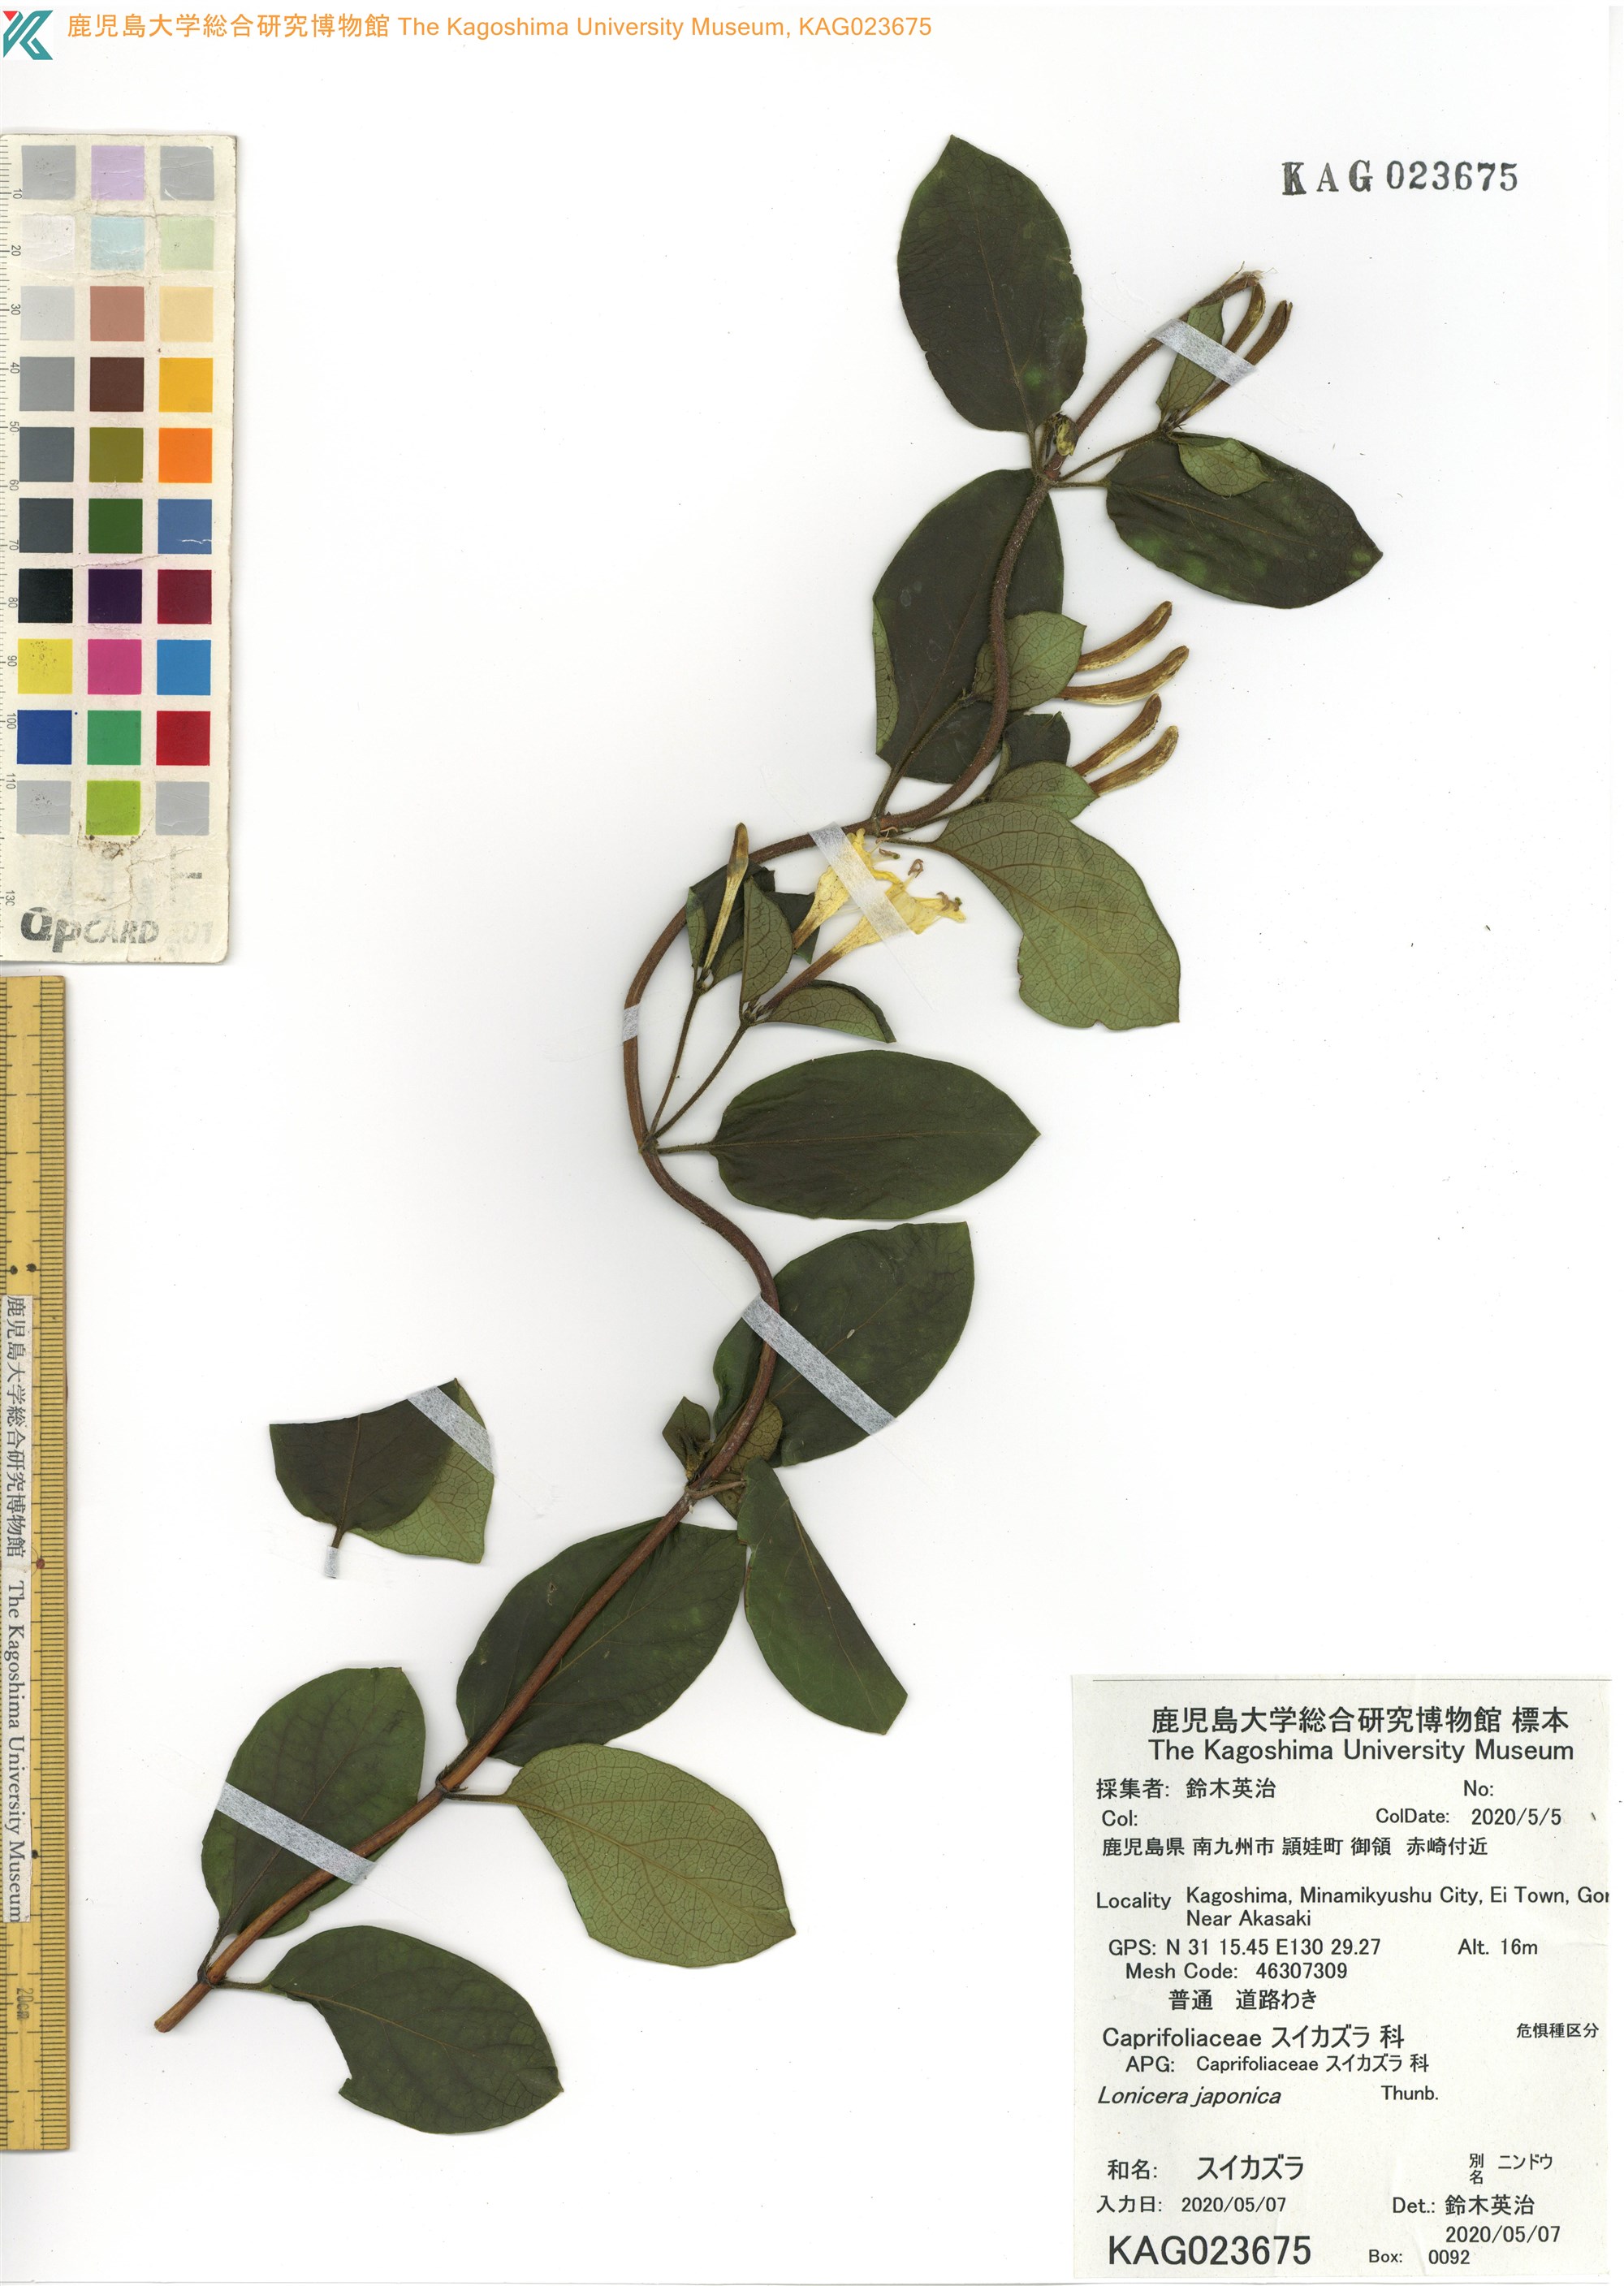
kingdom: Plantae
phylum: Tracheophyta
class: Magnoliopsida
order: Dipsacales
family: Caprifoliaceae
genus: Lonicera
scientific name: Lonicera japonica
